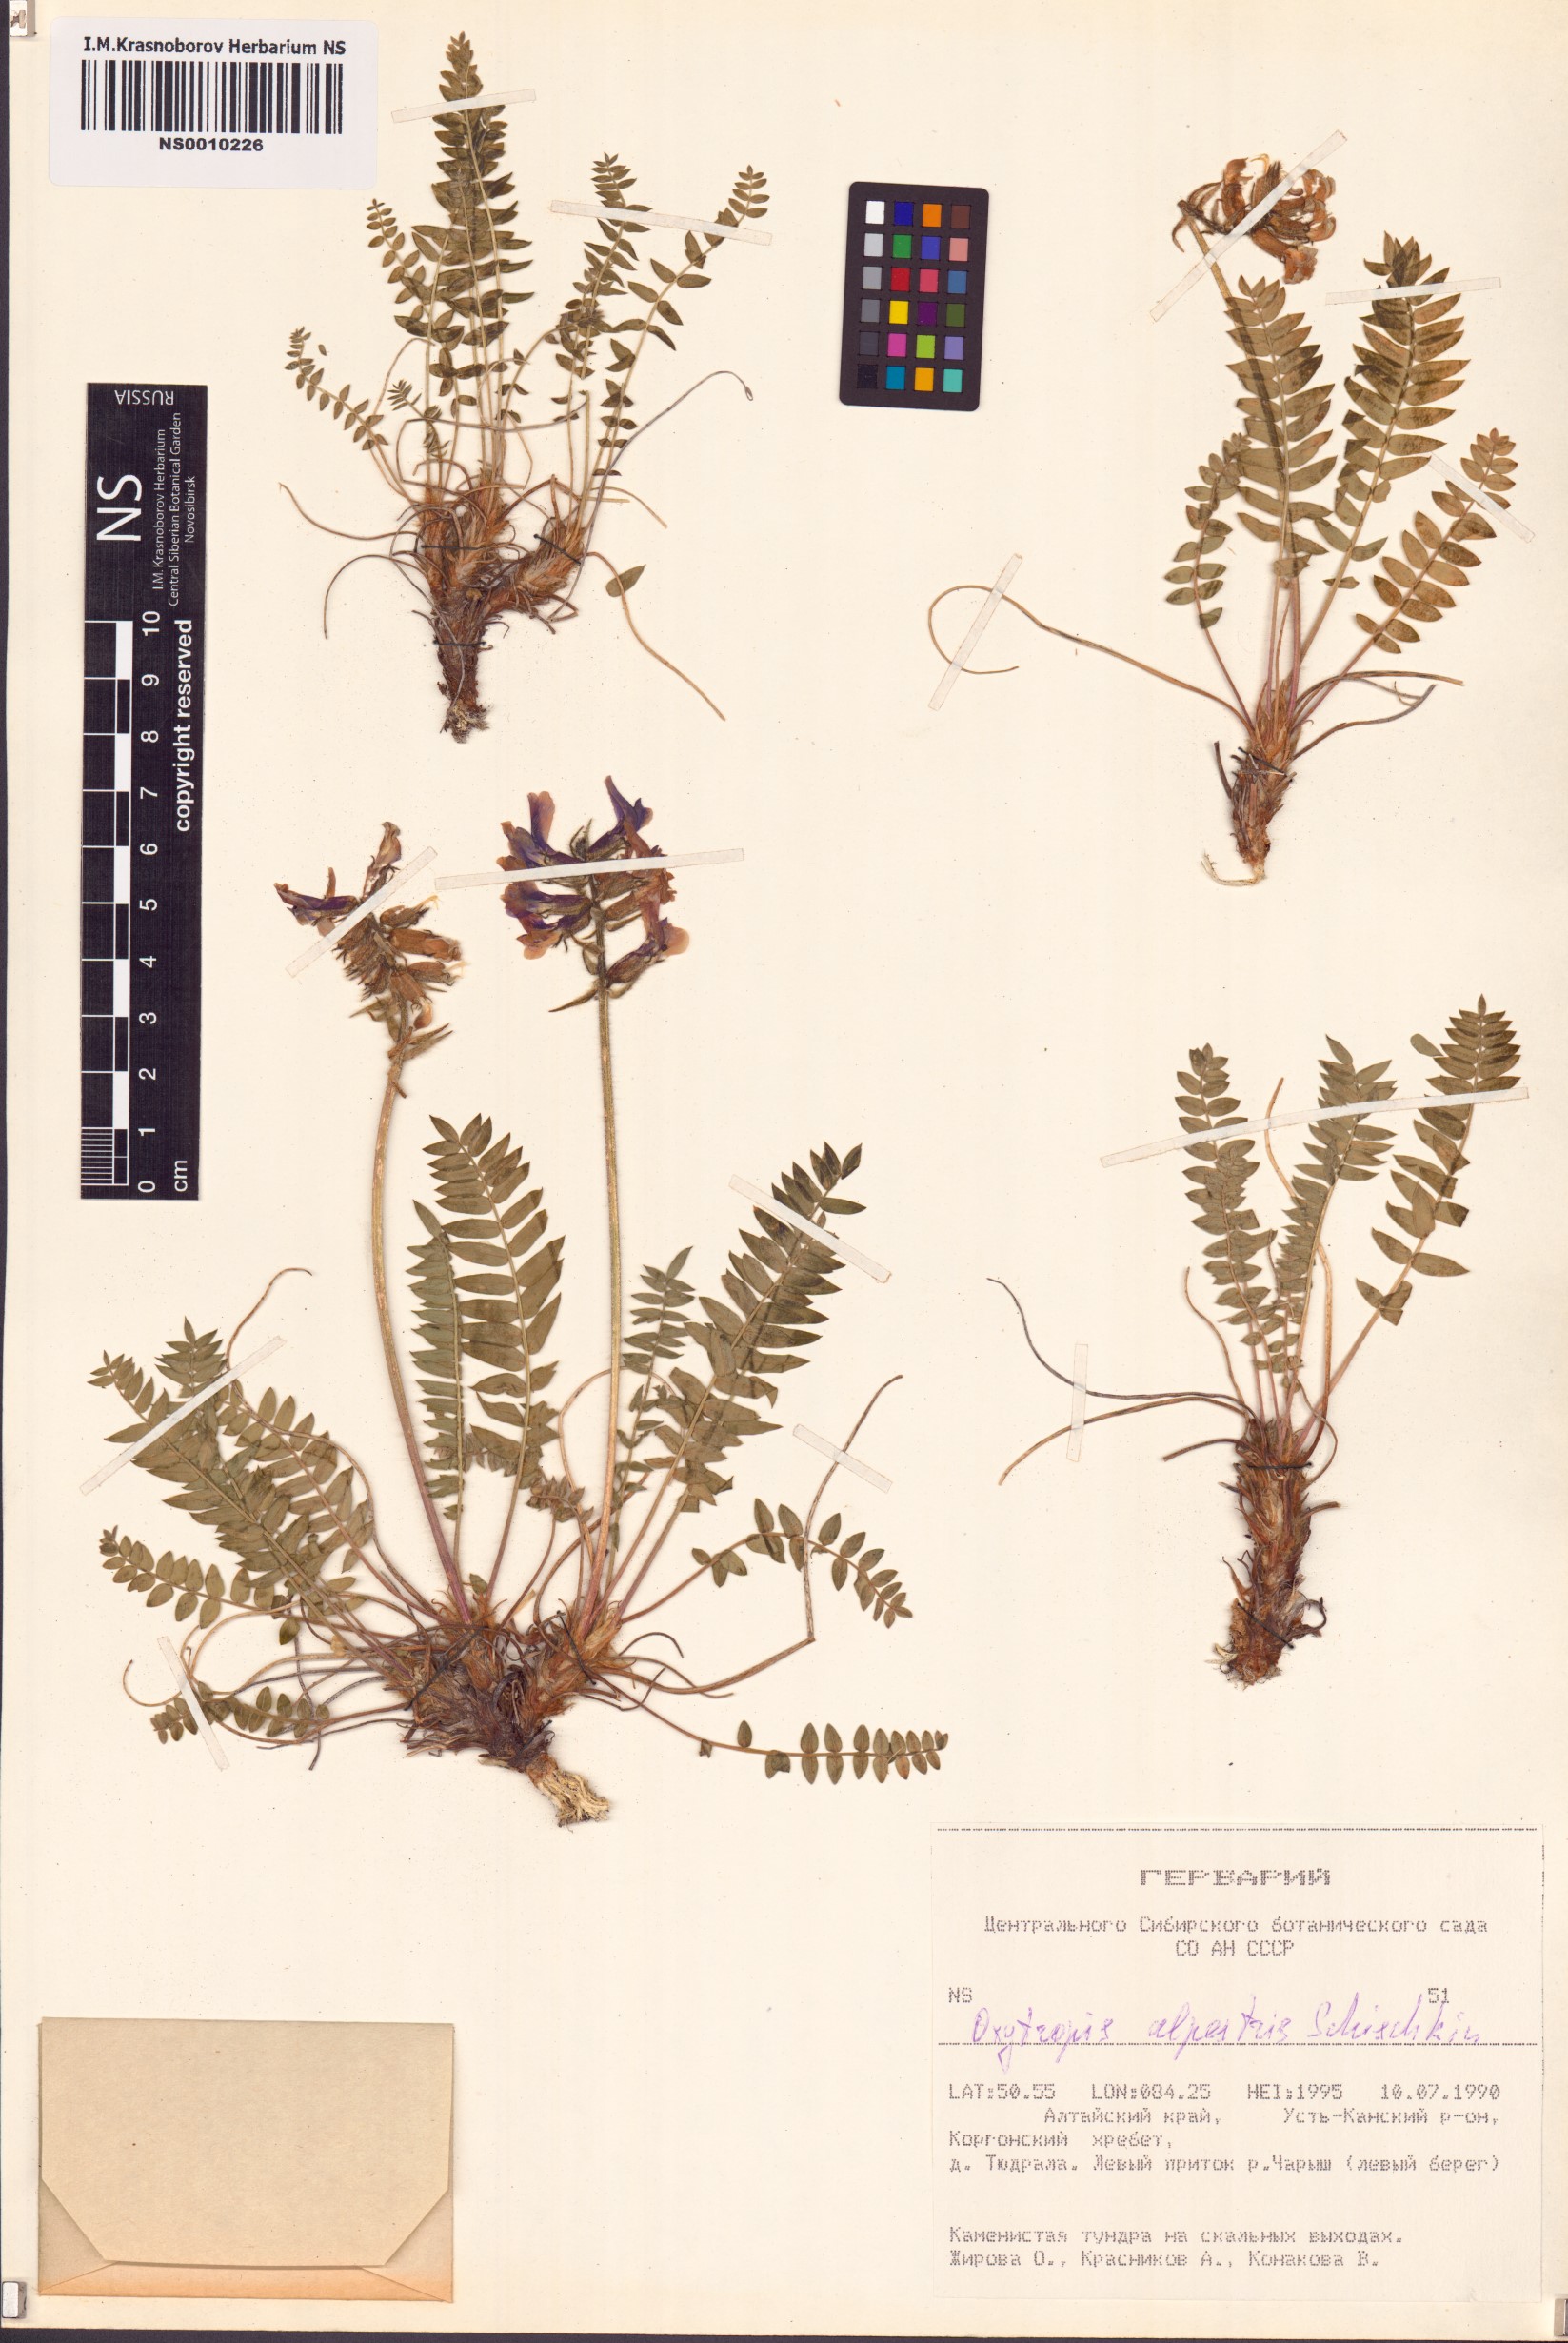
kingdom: Plantae
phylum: Tracheophyta
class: Magnoliopsida
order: Fabales
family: Fabaceae
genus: Oxytropis
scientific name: Oxytropis alpestris
